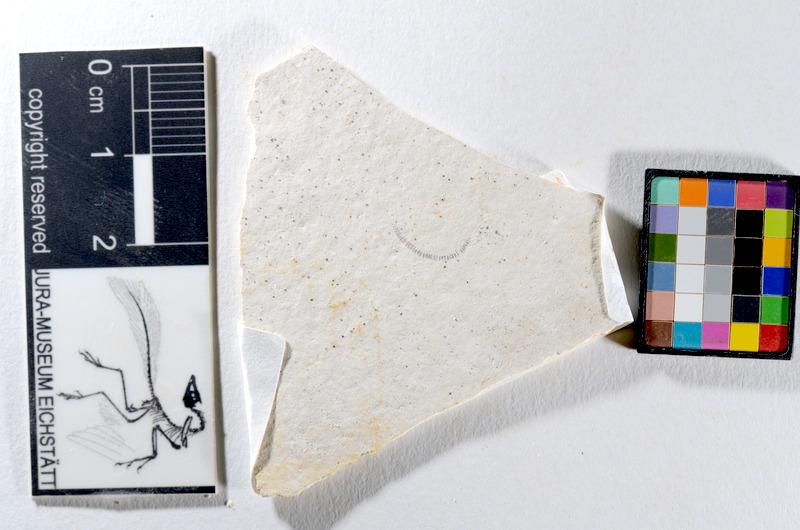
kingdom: Animalia
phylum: Chordata
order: Salmoniformes
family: Orthogonikleithridae
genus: Orthogonikleithrus
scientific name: Orthogonikleithrus hoelli
